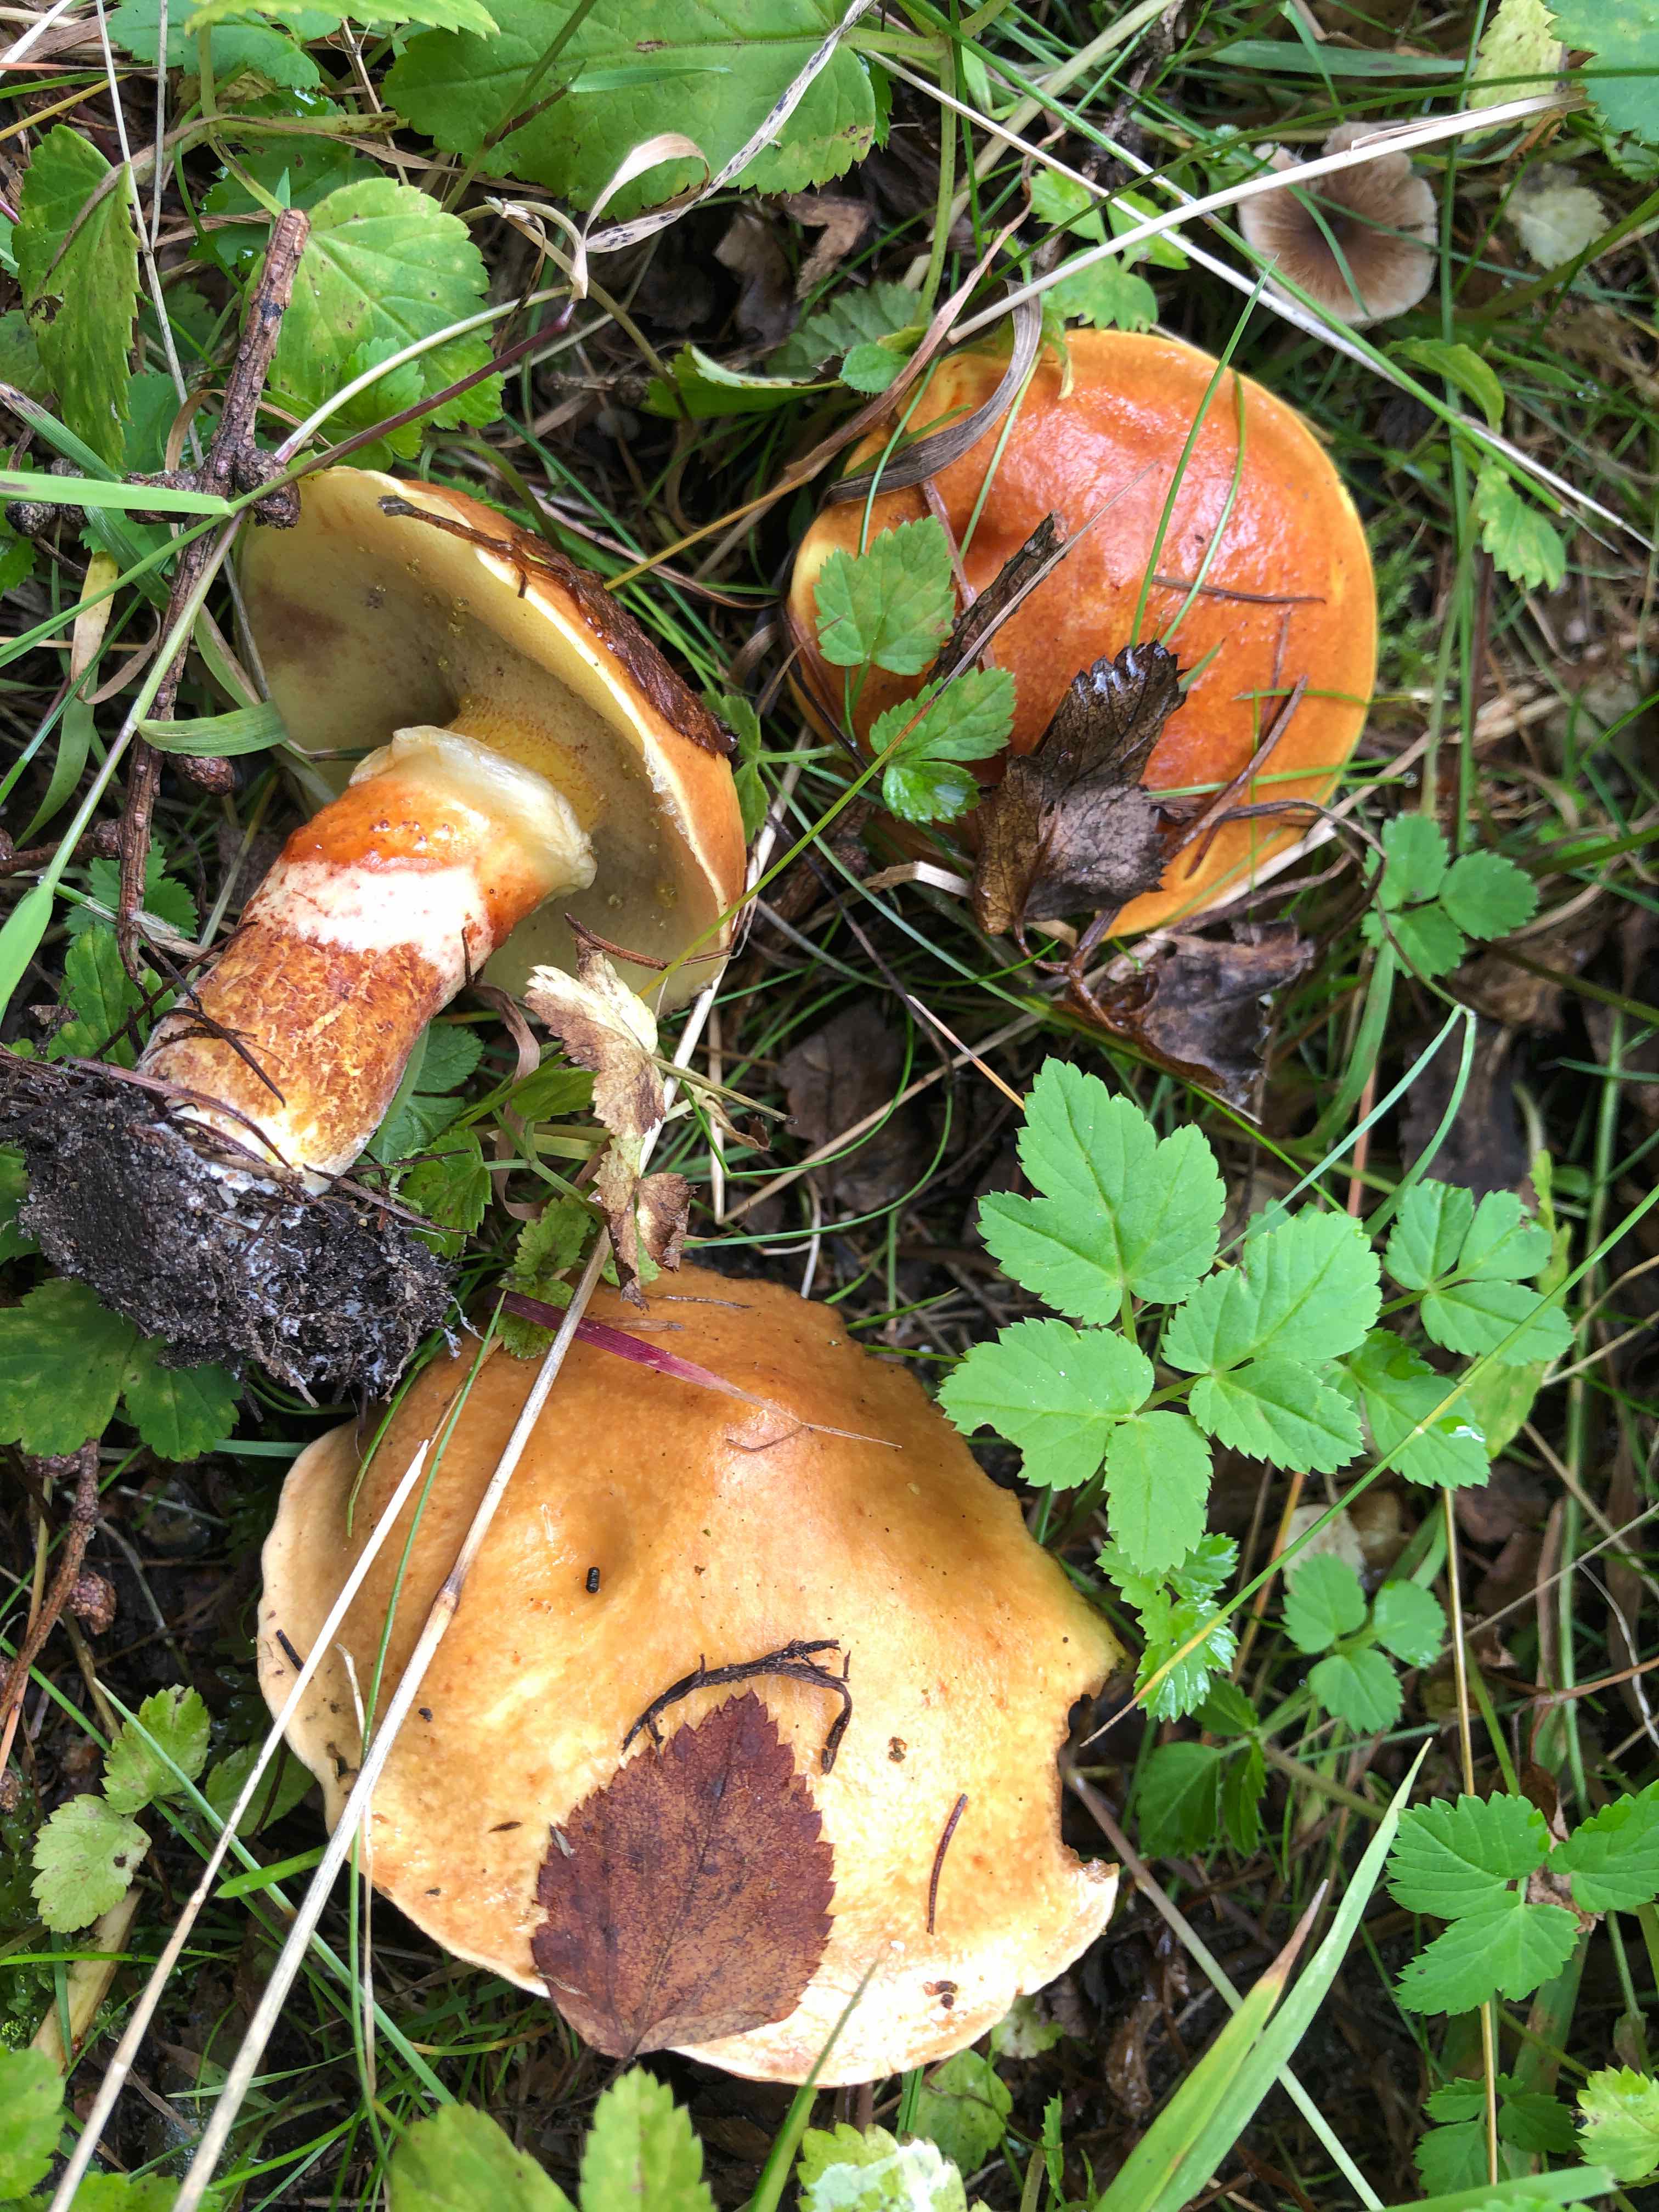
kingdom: Fungi
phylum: Basidiomycota
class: Agaricomycetes
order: Boletales
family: Suillaceae
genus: Suillus
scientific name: Suillus grevillei
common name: lærke-slimrørhat
